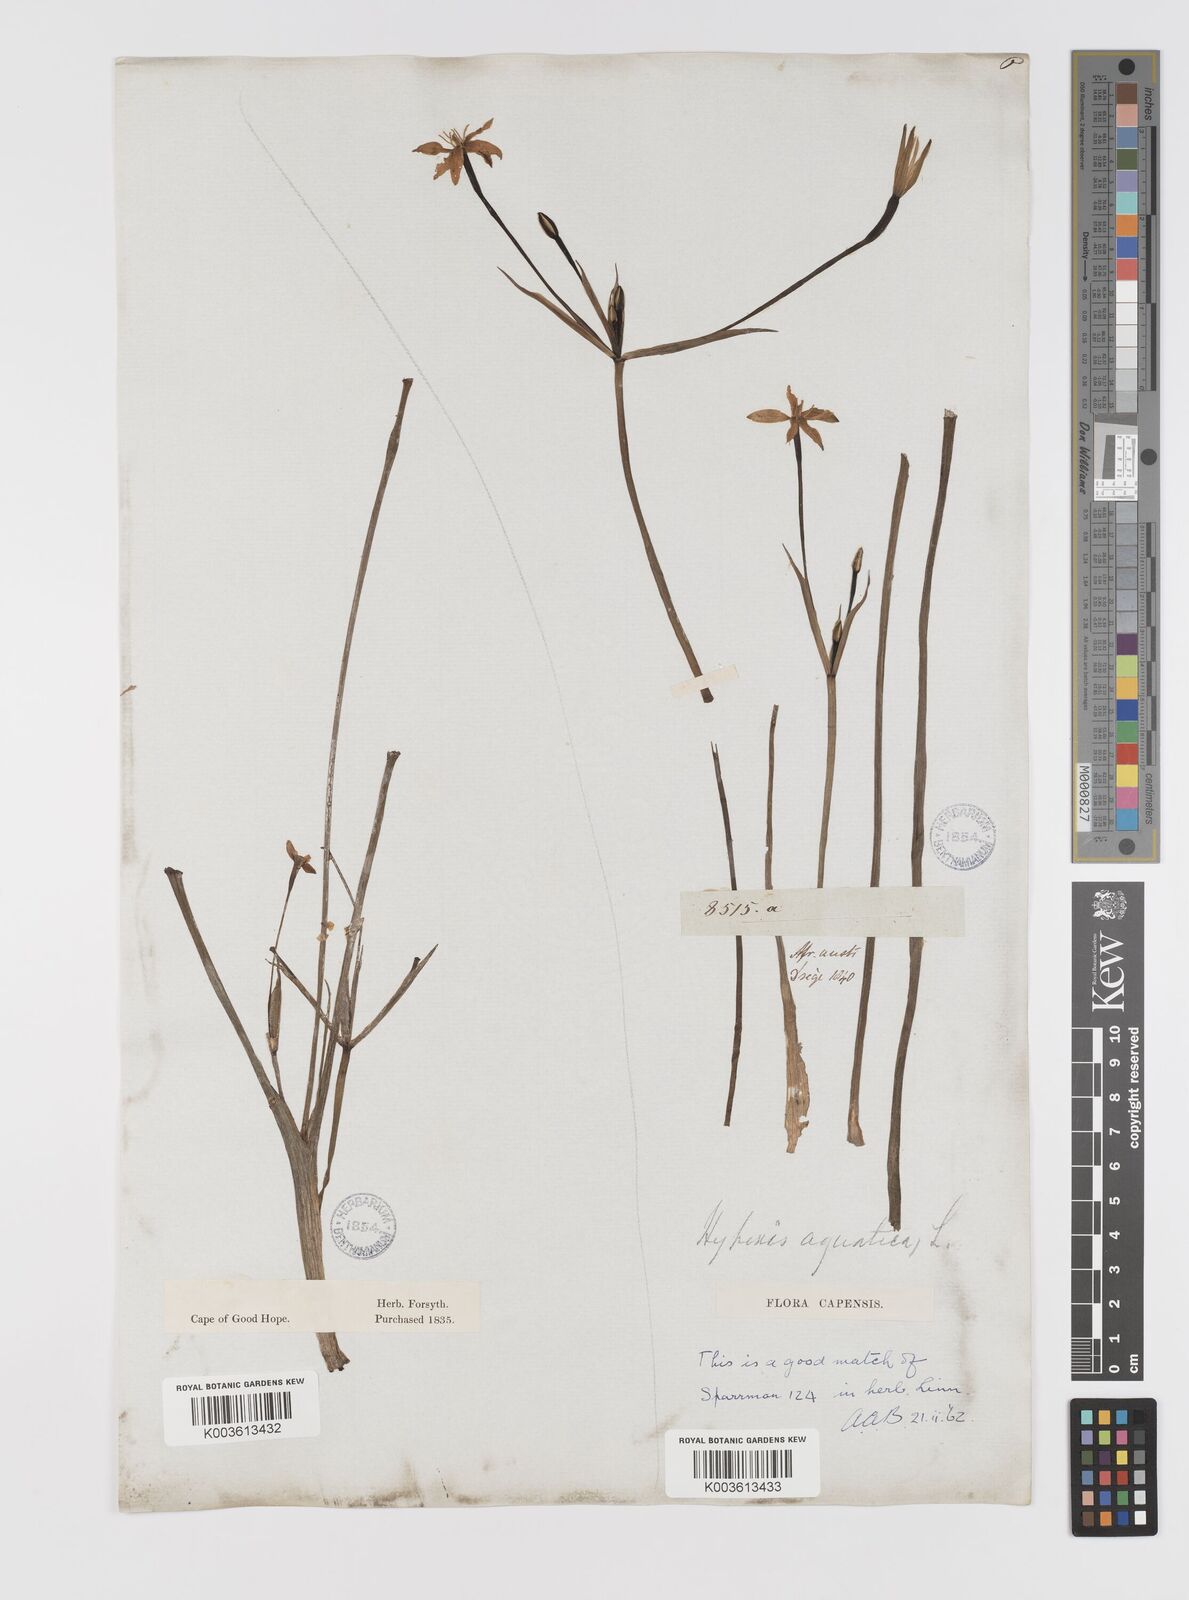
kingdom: Plantae
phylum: Tracheophyta
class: Liliopsida
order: Asparagales
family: Hypoxidaceae
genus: Pauridia
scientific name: Pauridia aquatica
